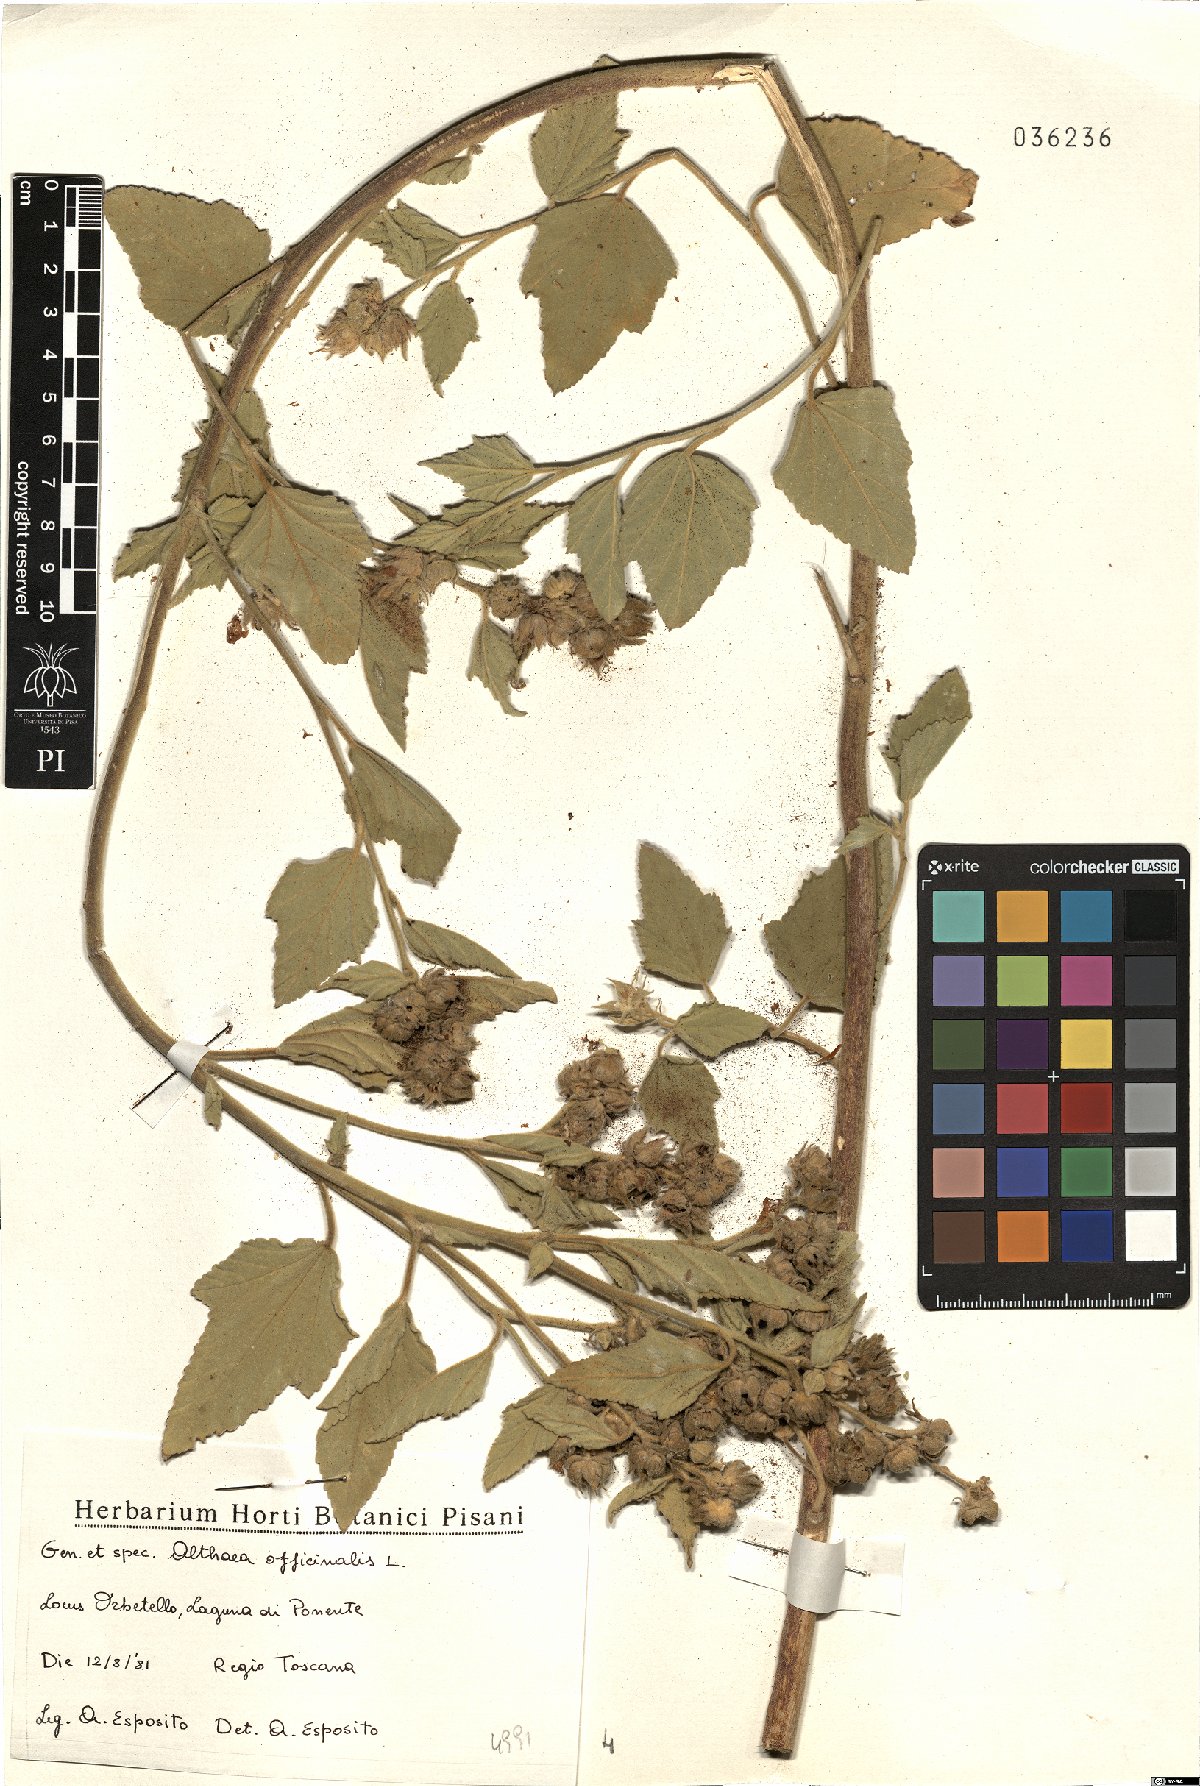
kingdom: Plantae
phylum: Tracheophyta
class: Magnoliopsida
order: Malvales
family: Malvaceae
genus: Althaea
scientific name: Althaea officinalis
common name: Marsh-mallow
